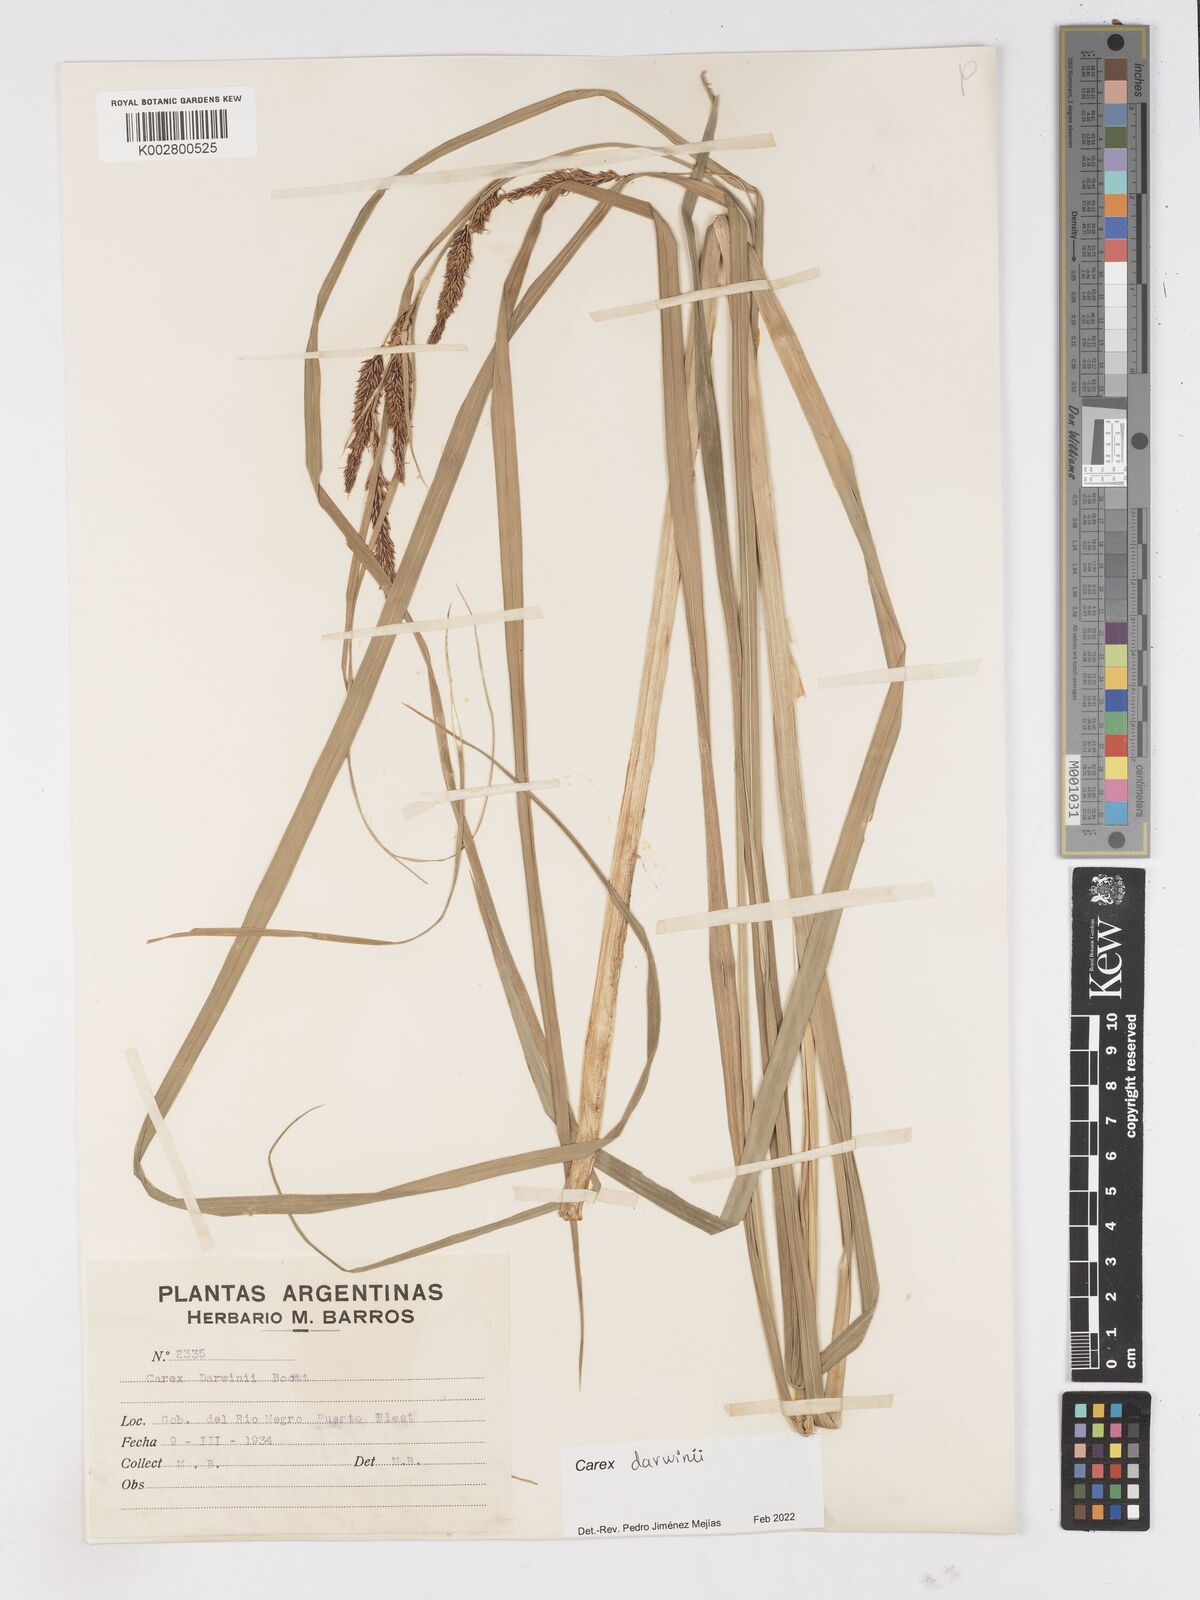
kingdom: Plantae
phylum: Tracheophyta
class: Liliopsida
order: Poales
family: Cyperaceae
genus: Carex
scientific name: Carex darwinii
